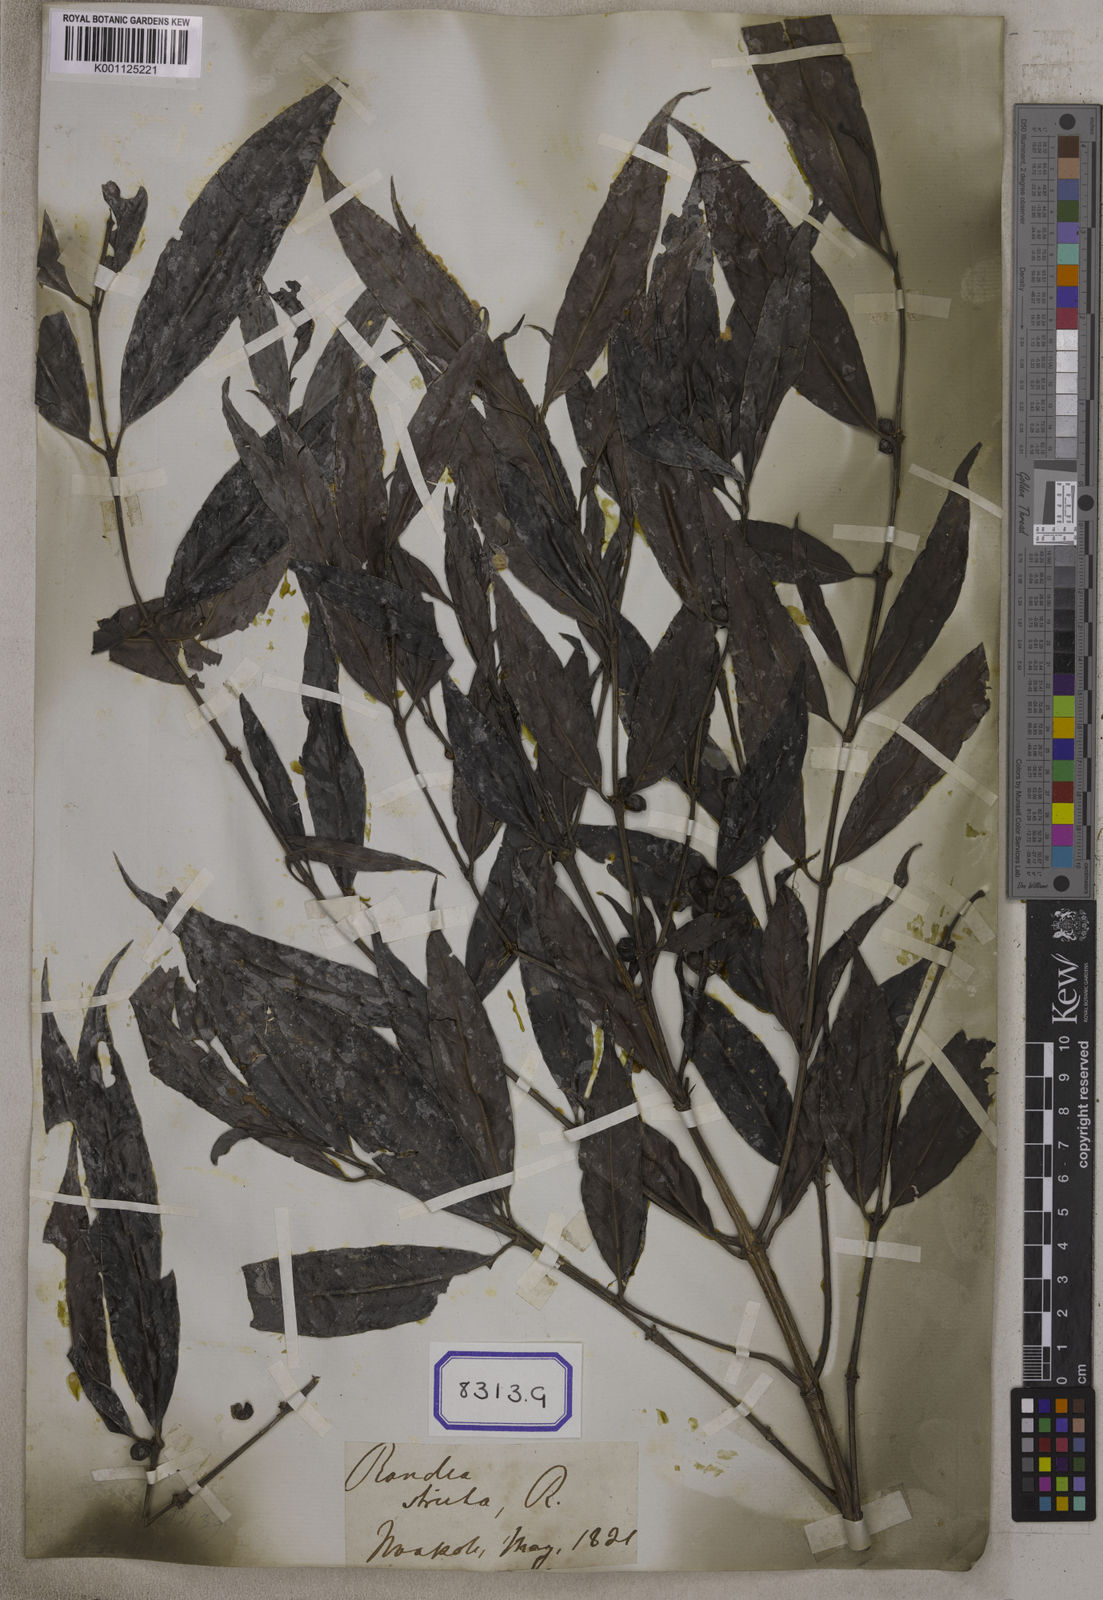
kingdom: Plantae
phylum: Tracheophyta
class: Magnoliopsida
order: Gentianales
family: Rubiaceae
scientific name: Rubiaceae
